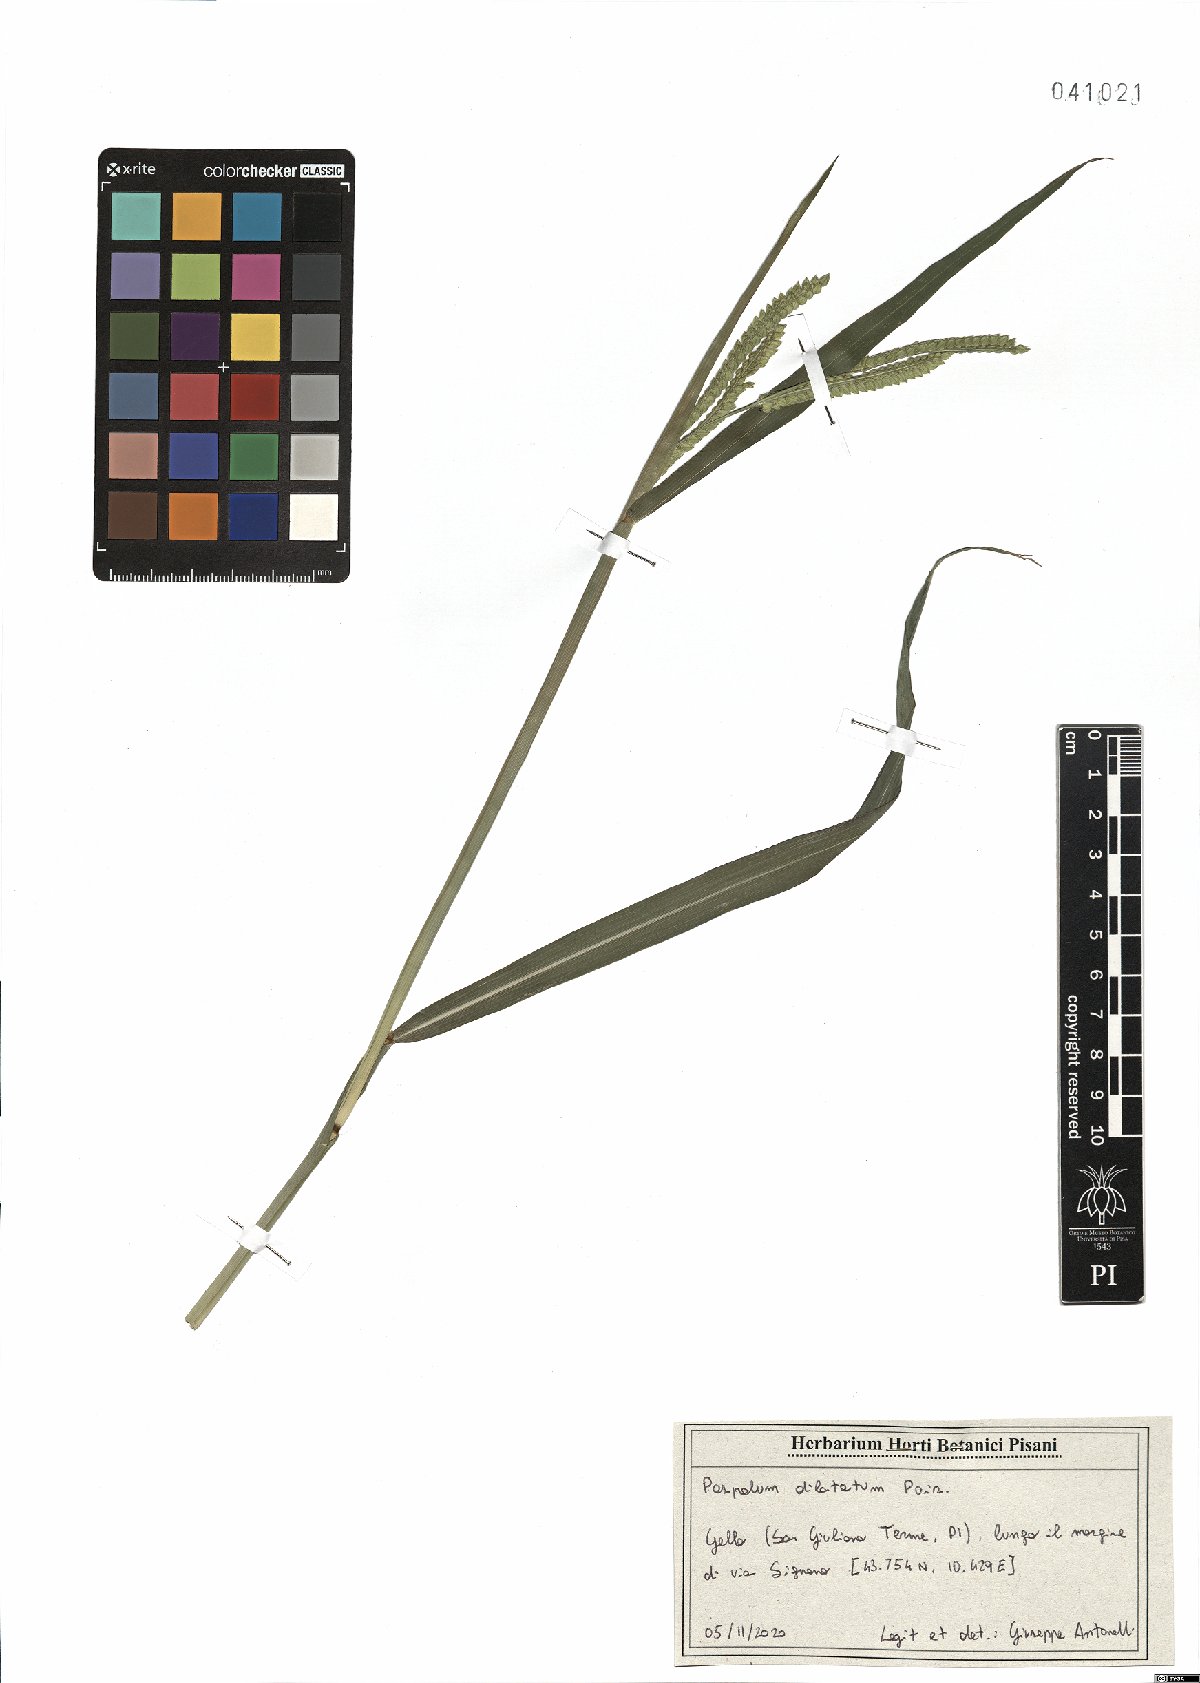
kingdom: Plantae
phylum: Tracheophyta
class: Liliopsida
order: Poales
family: Poaceae
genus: Paspalum
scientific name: Paspalum dilatatum
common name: Dallisgrass
